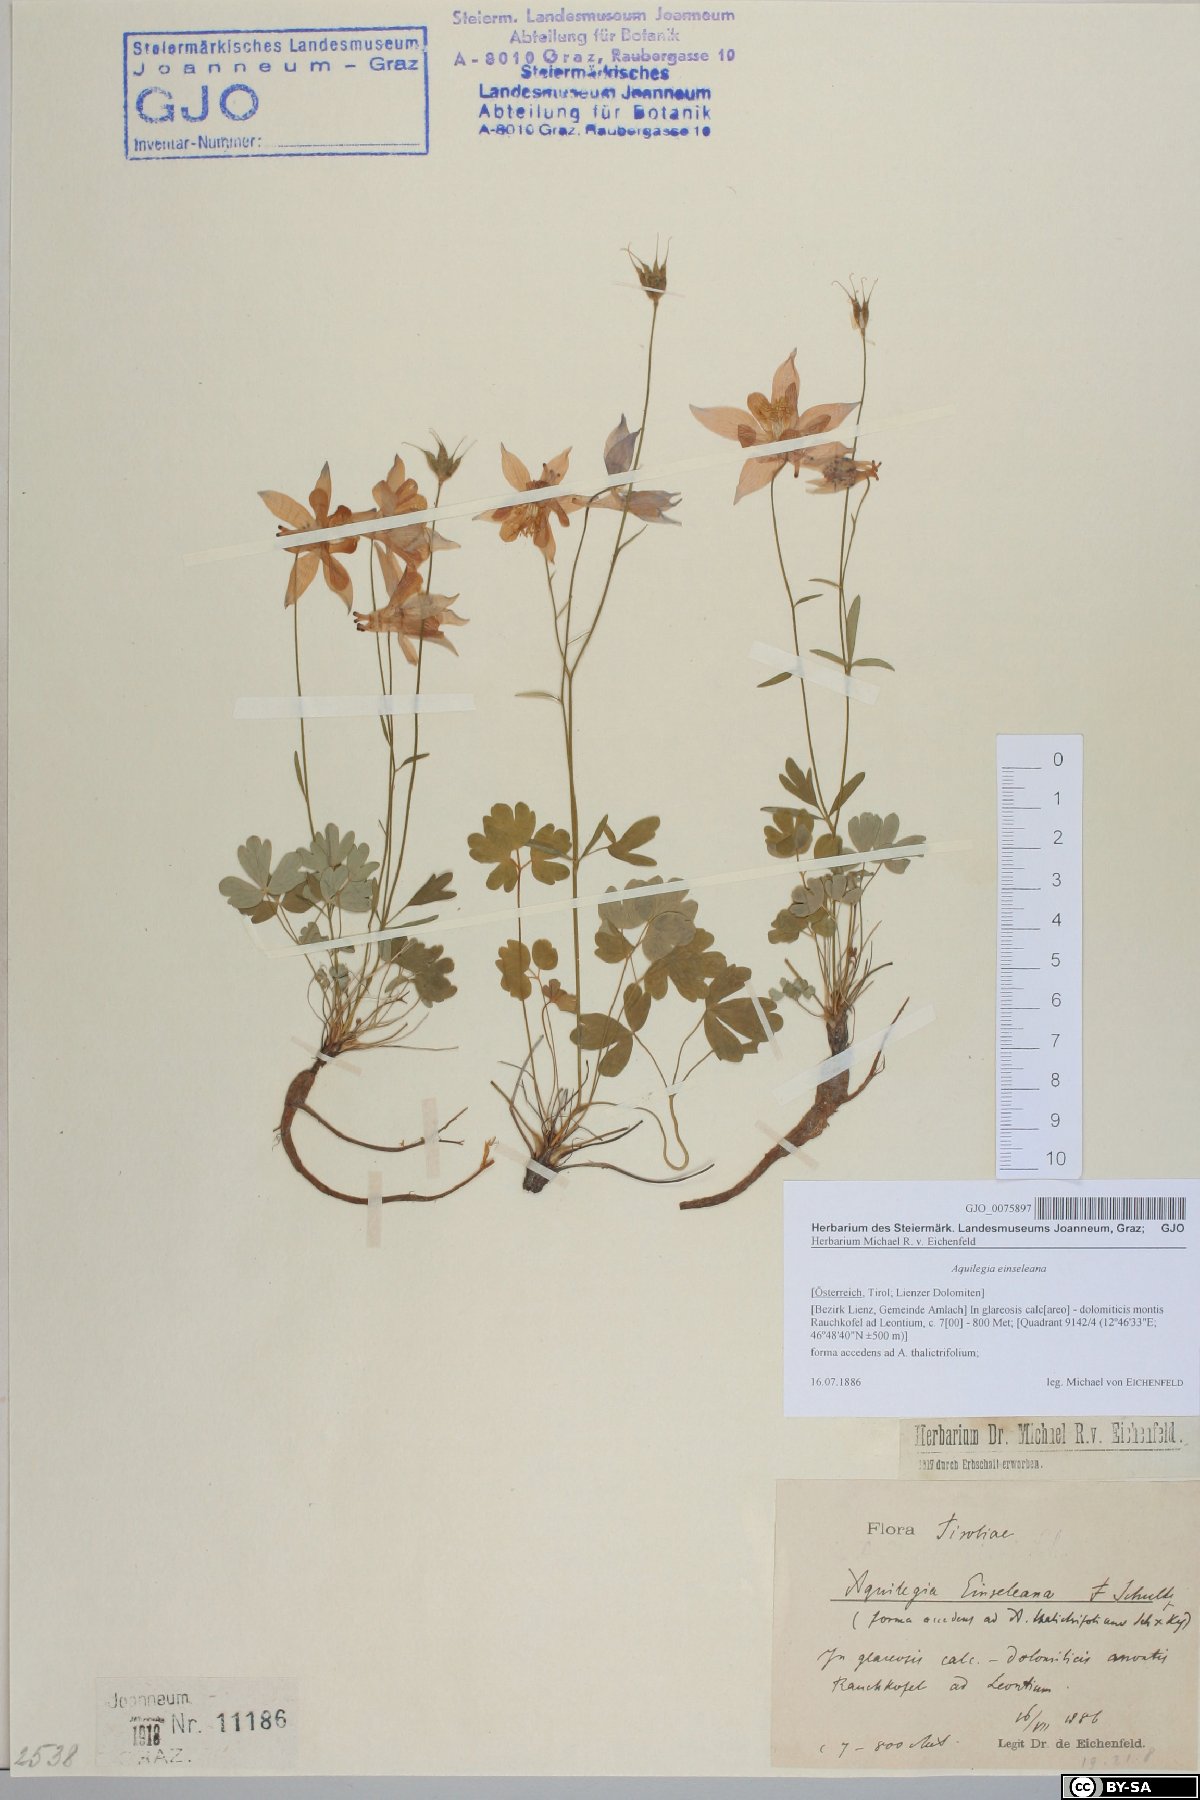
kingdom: Plantae
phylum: Tracheophyta
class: Magnoliopsida
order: Ranunculales
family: Ranunculaceae
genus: Aquilegia
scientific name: Aquilegia einseleana
